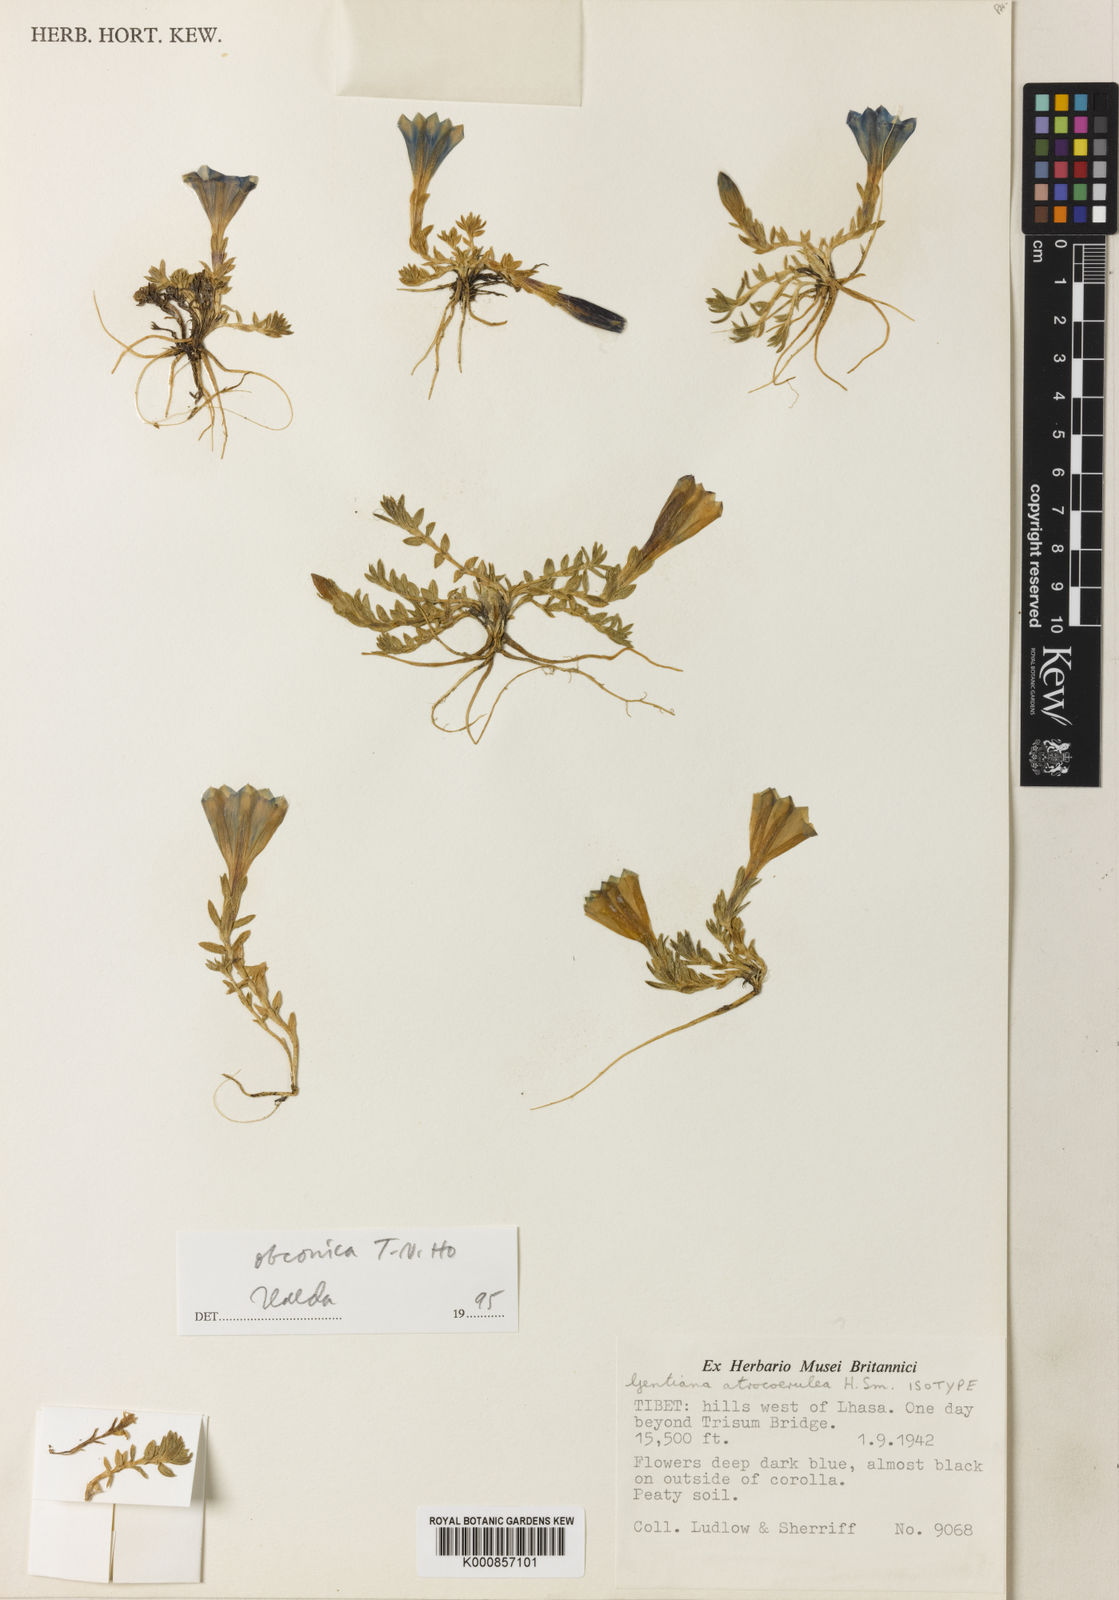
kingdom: Plantae
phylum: Tracheophyta
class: Magnoliopsida
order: Gentianales
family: Gentianaceae
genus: Gentiana
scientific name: Gentiana obconica
